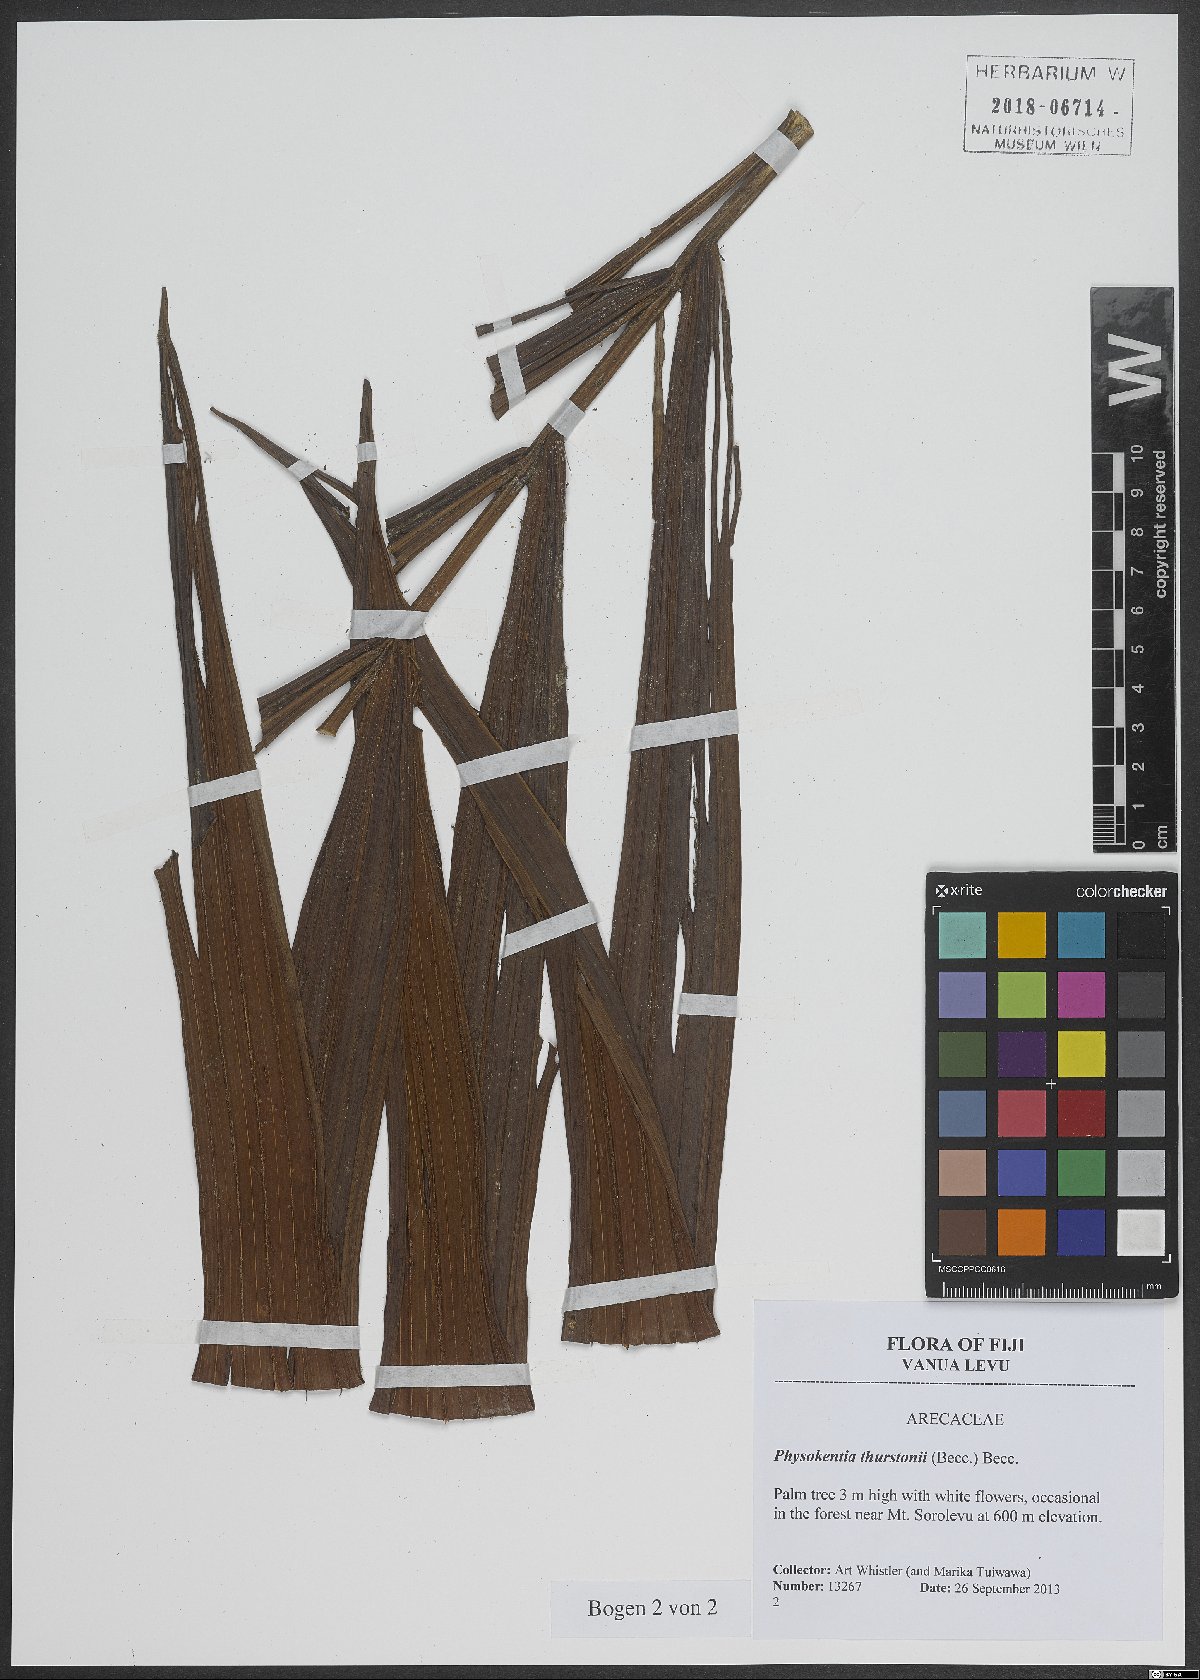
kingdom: Plantae
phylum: Tracheophyta
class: Liliopsida
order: Arecales
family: Arecaceae
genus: Physokentia
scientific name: Physokentia thurstonii
